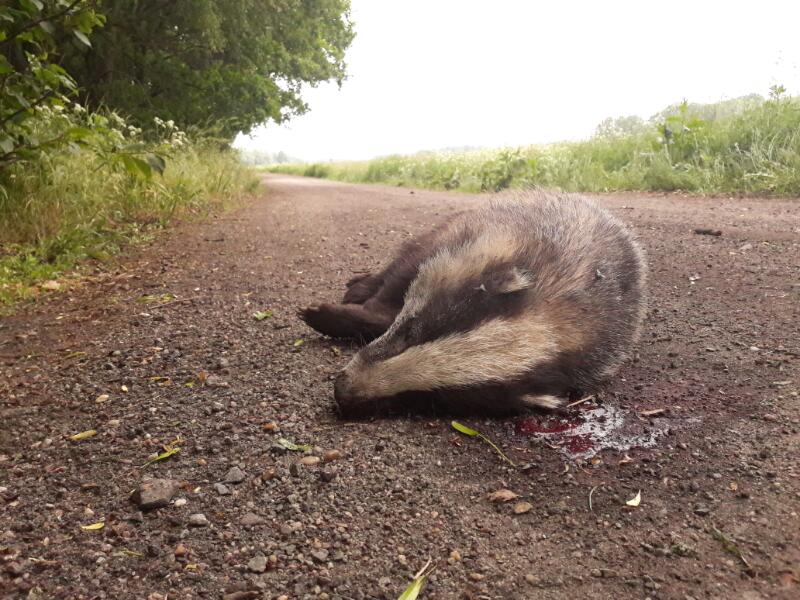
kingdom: Animalia
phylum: Chordata
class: Mammalia
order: Carnivora
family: Mustelidae
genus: Meles
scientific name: Meles meles
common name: Eurasian badger
